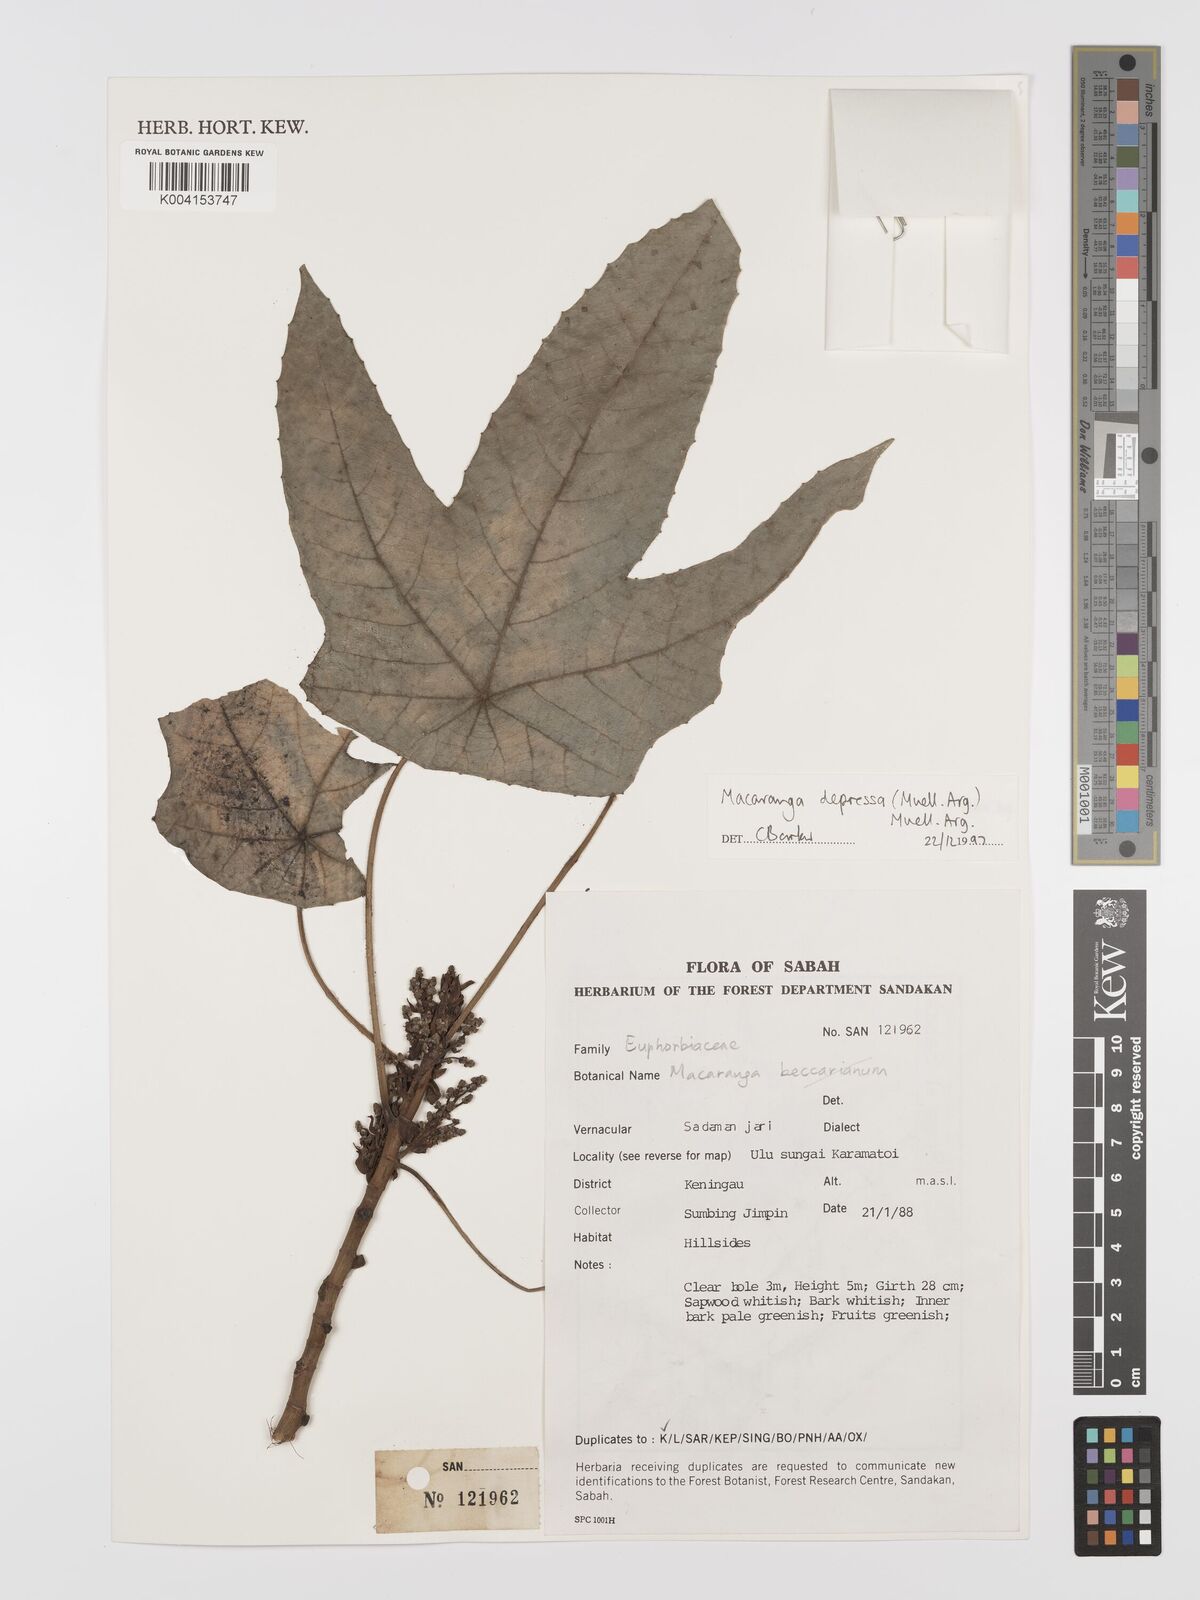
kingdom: Plantae
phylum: Tracheophyta
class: Magnoliopsida
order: Malpighiales
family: Euphorbiaceae
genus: Macaranga
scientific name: Macaranga depressa
